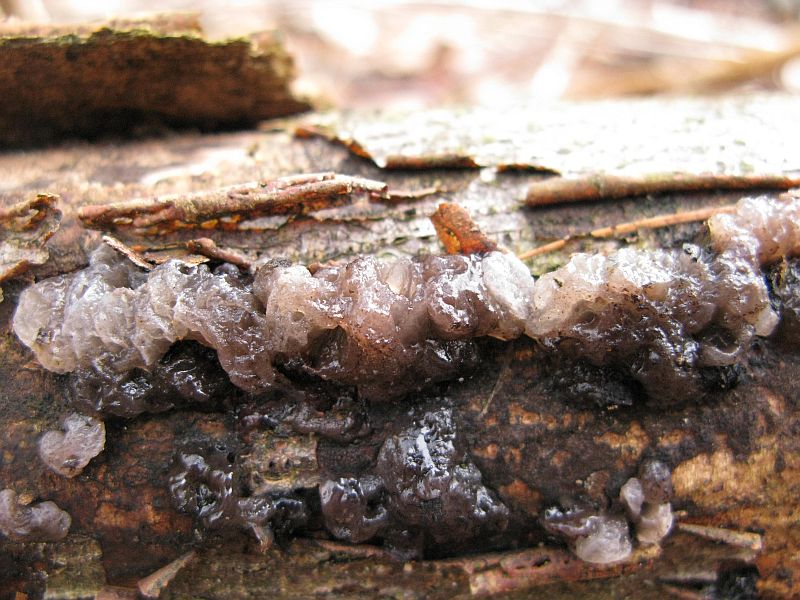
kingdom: Fungi
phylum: Basidiomycota
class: Tremellomycetes
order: Tremellales
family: Tremellaceae
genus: Tremella
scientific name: Tremella indecorata
